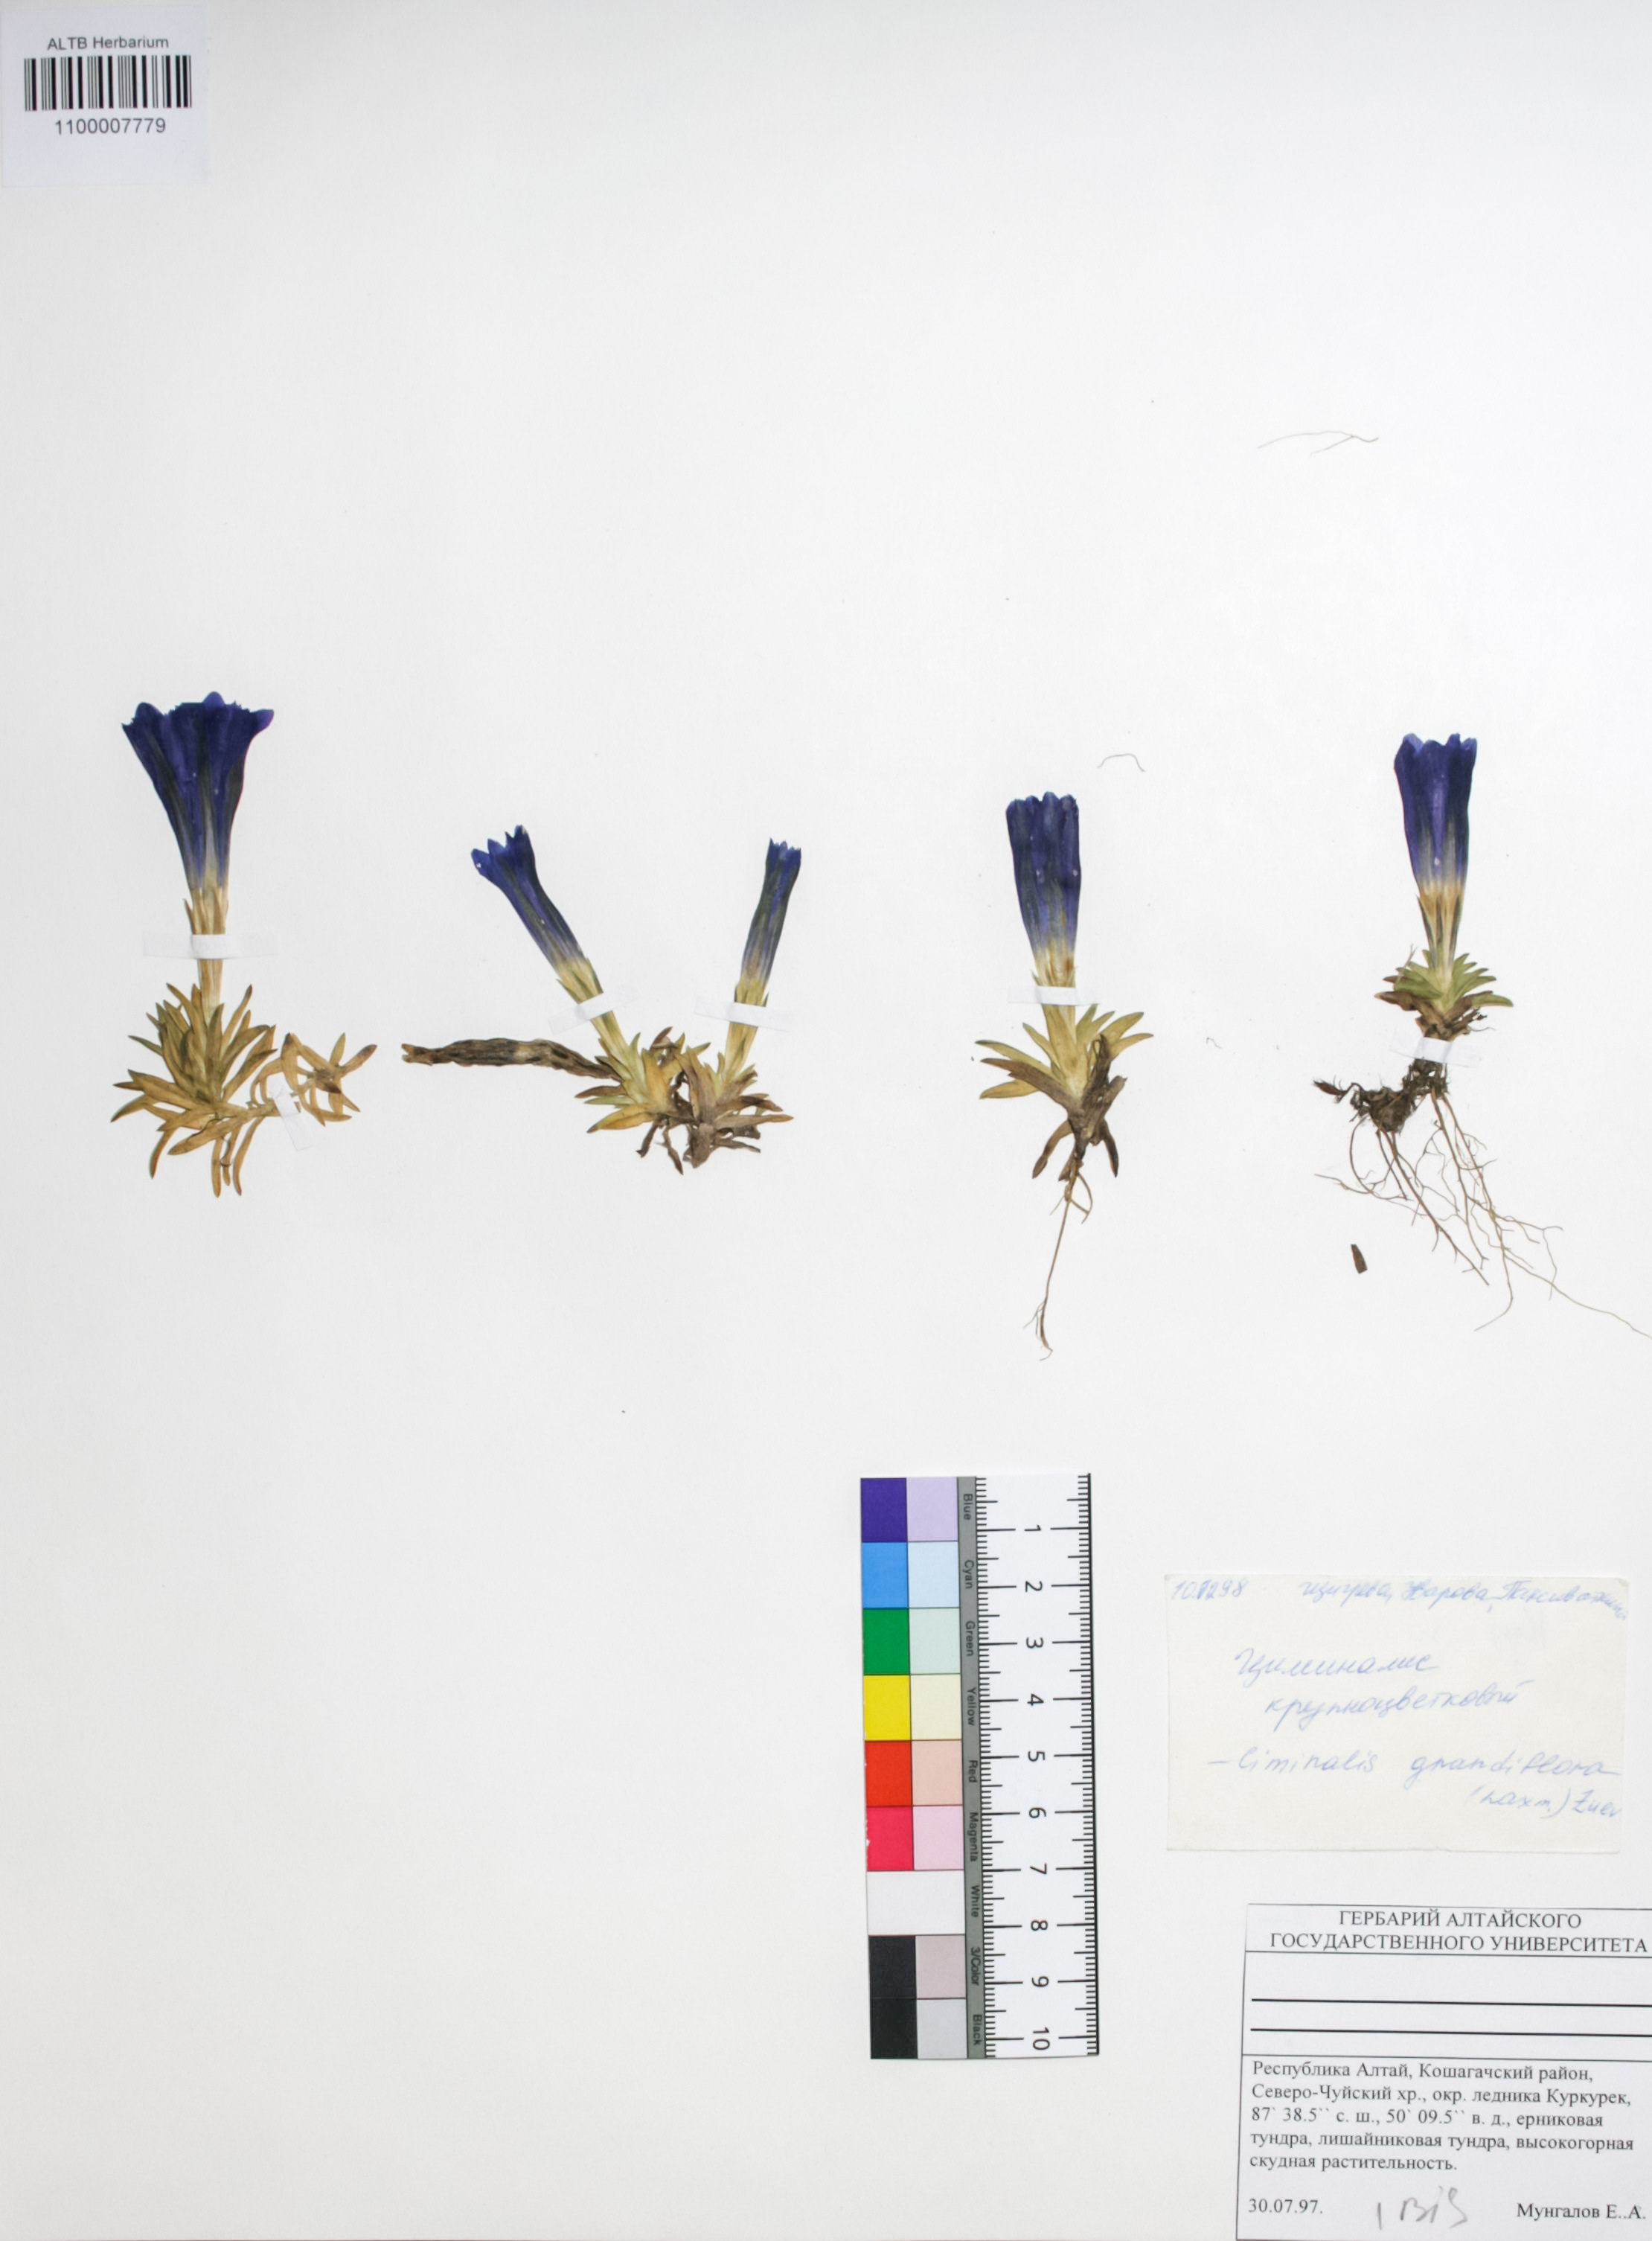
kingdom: Plantae
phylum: Tracheophyta
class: Magnoliopsida
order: Gentianales
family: Gentianaceae
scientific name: Gentianaceae
